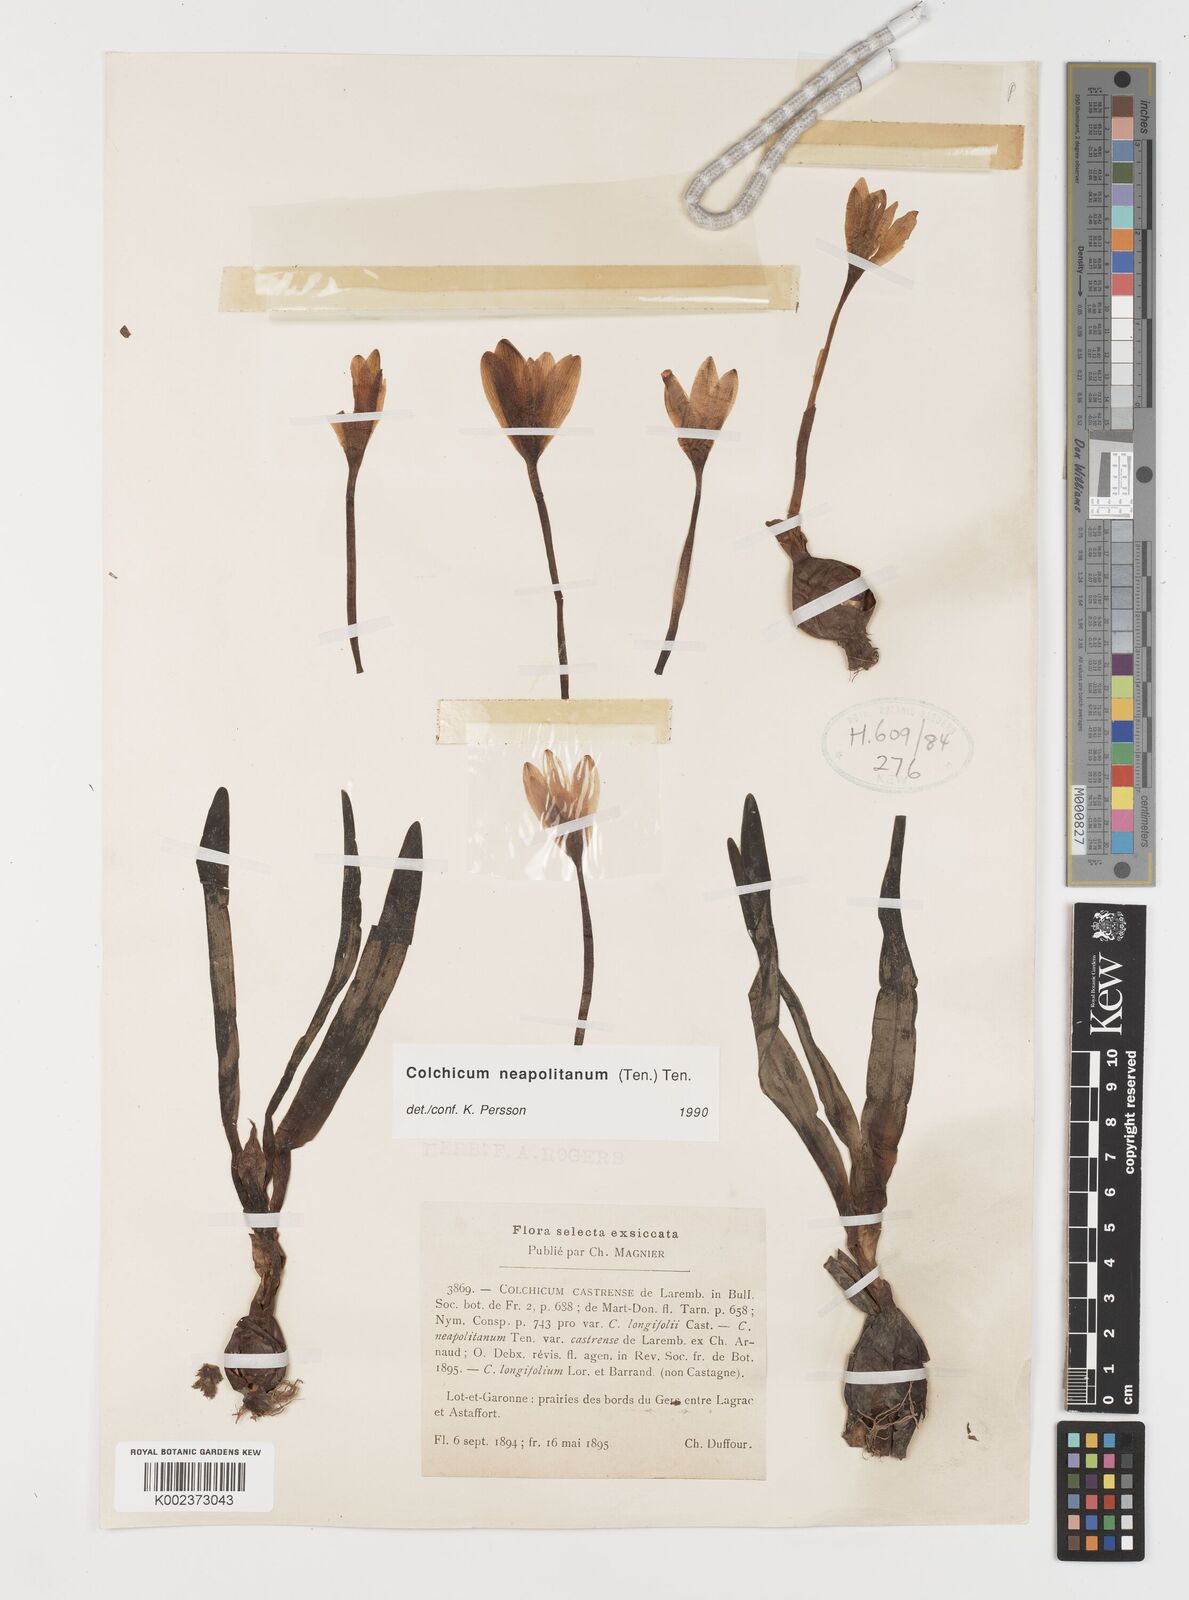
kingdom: Plantae
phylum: Tracheophyta
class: Liliopsida
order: Liliales
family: Colchicaceae
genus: Colchicum
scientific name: Colchicum neapolitanum
